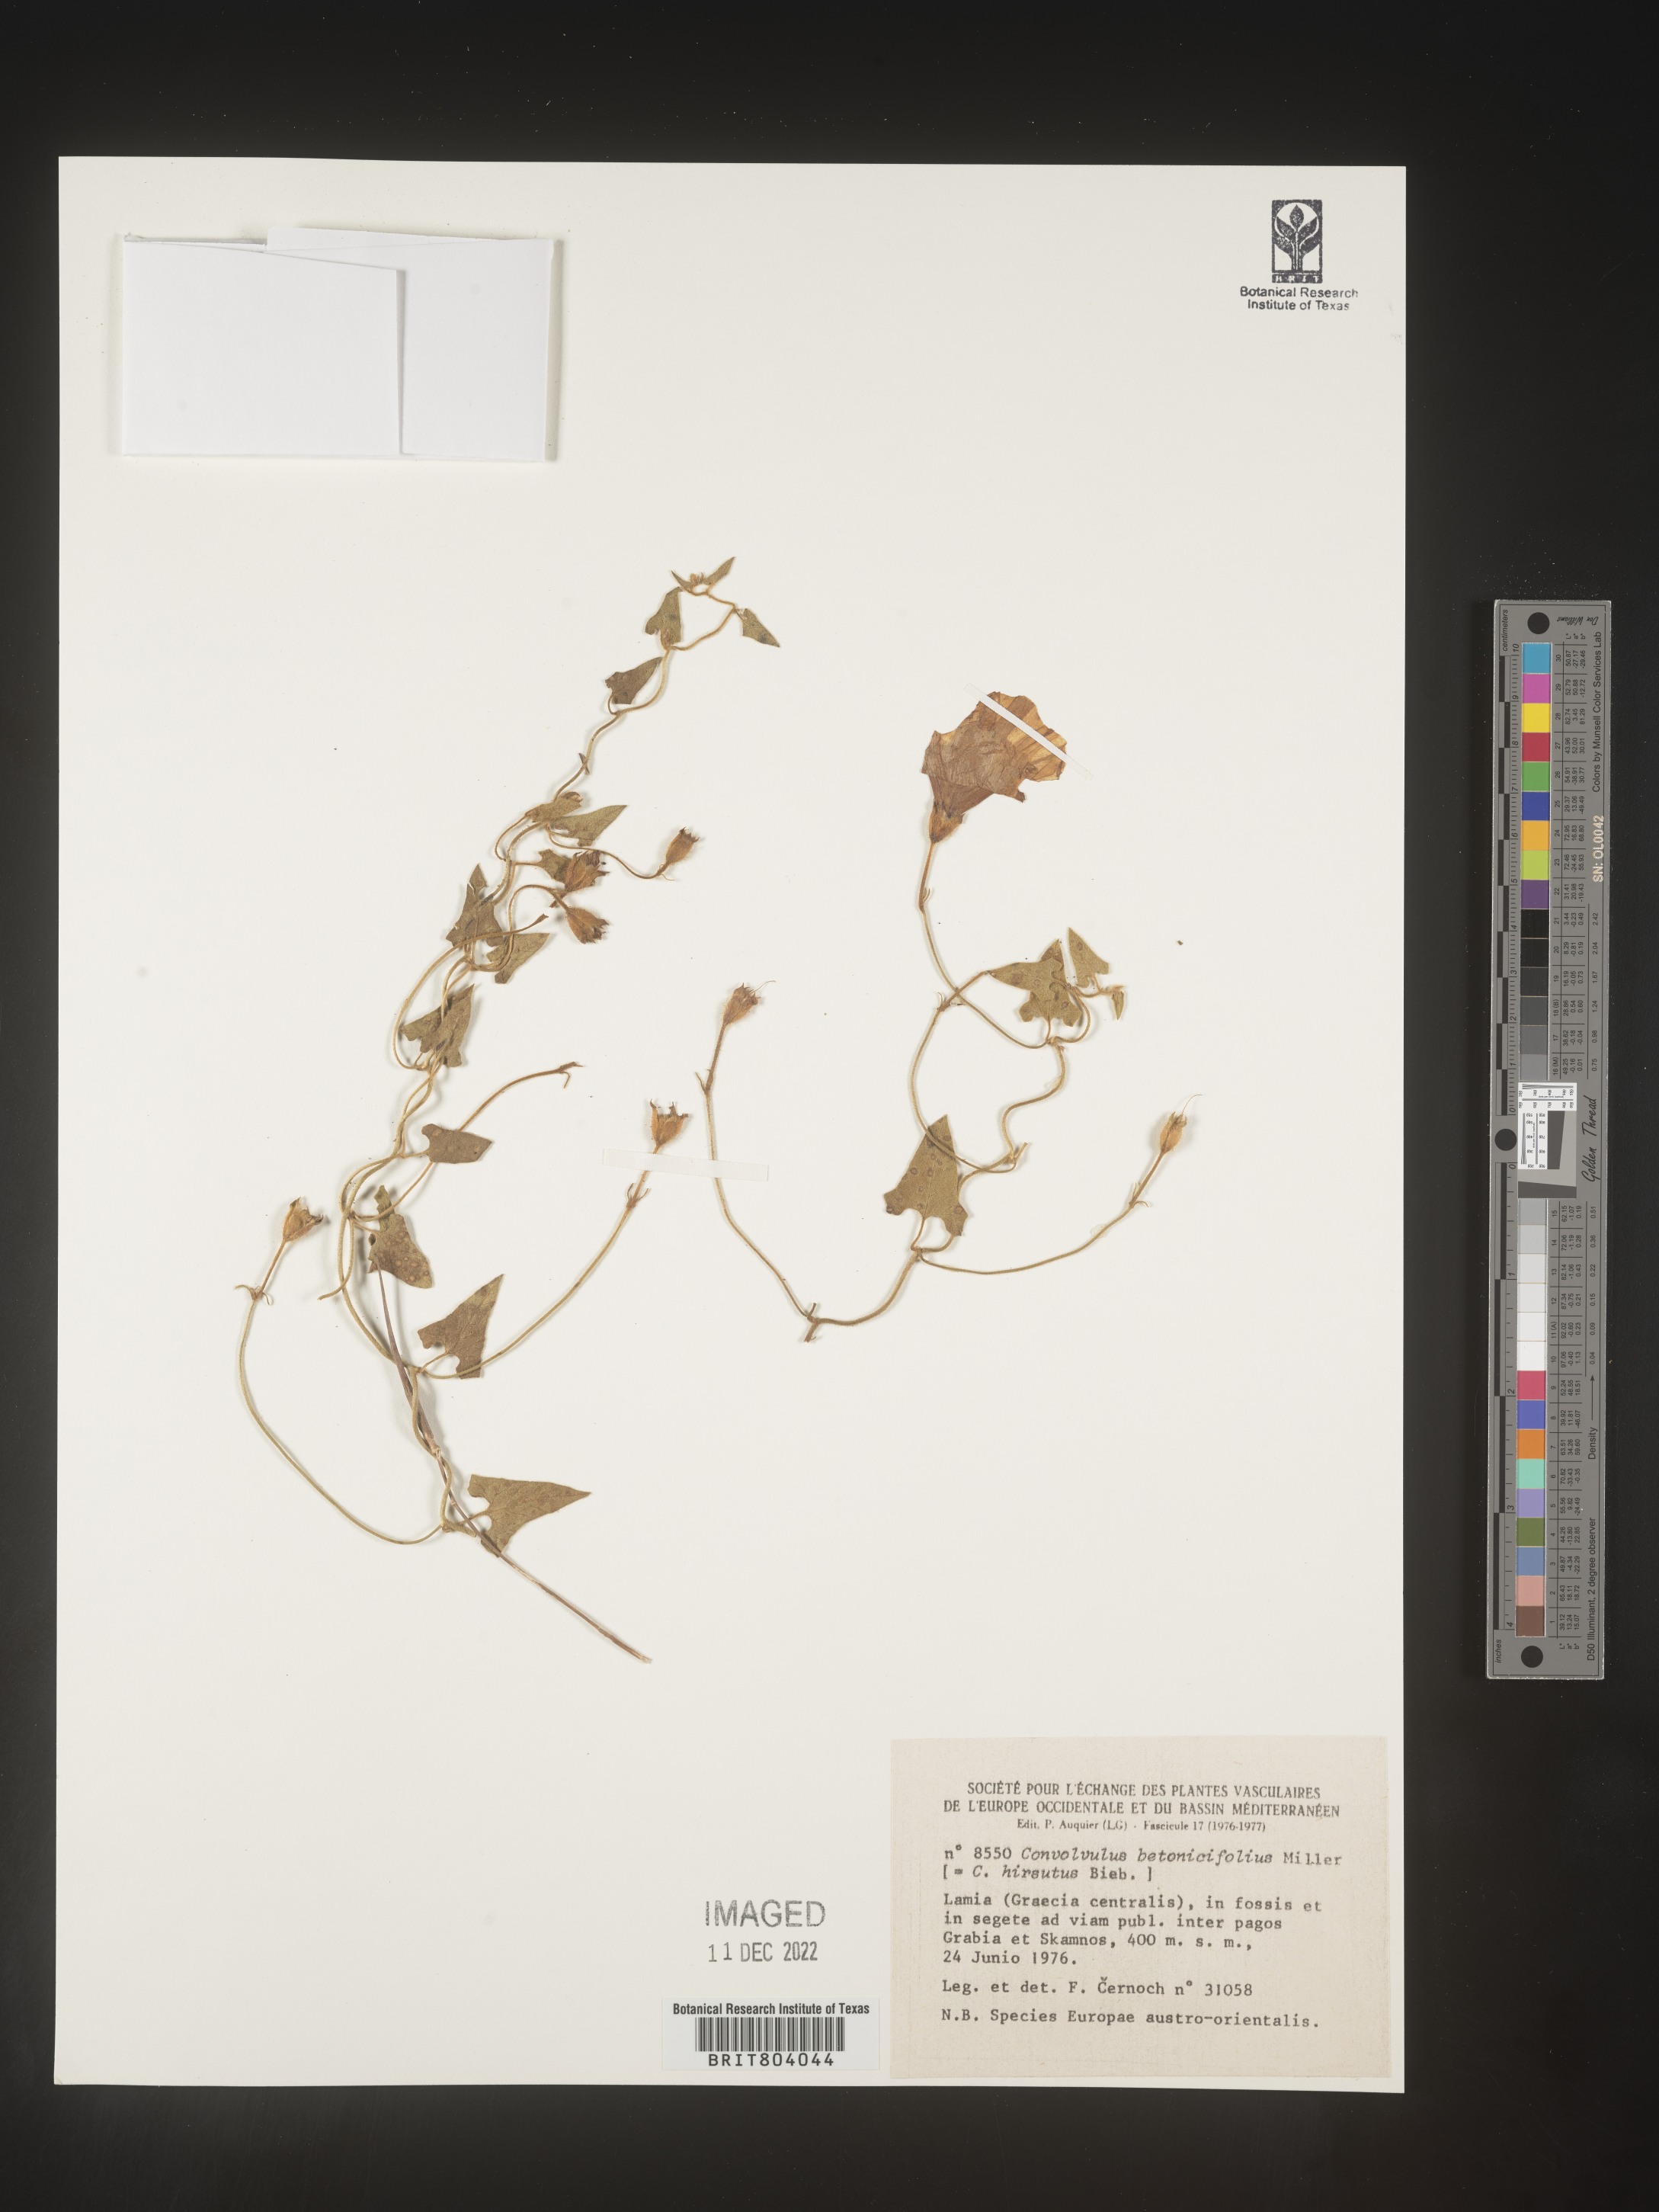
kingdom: Plantae
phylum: Tracheophyta
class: Magnoliopsida
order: Solanales
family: Convolvulaceae
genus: Convolvulus
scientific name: Convolvulus
